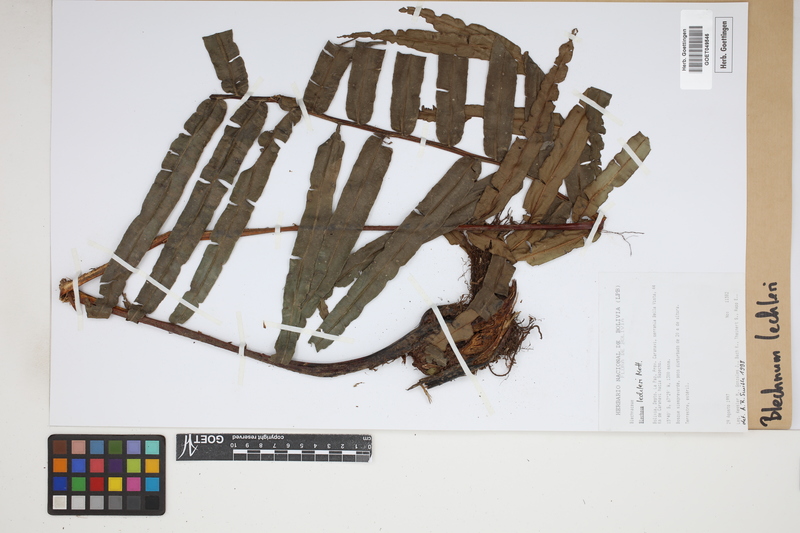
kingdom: Plantae
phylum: Tracheophyta
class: Polypodiopsida
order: Polypodiales
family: Blechnaceae
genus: Parablechnum
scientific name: Parablechnum lechleri
